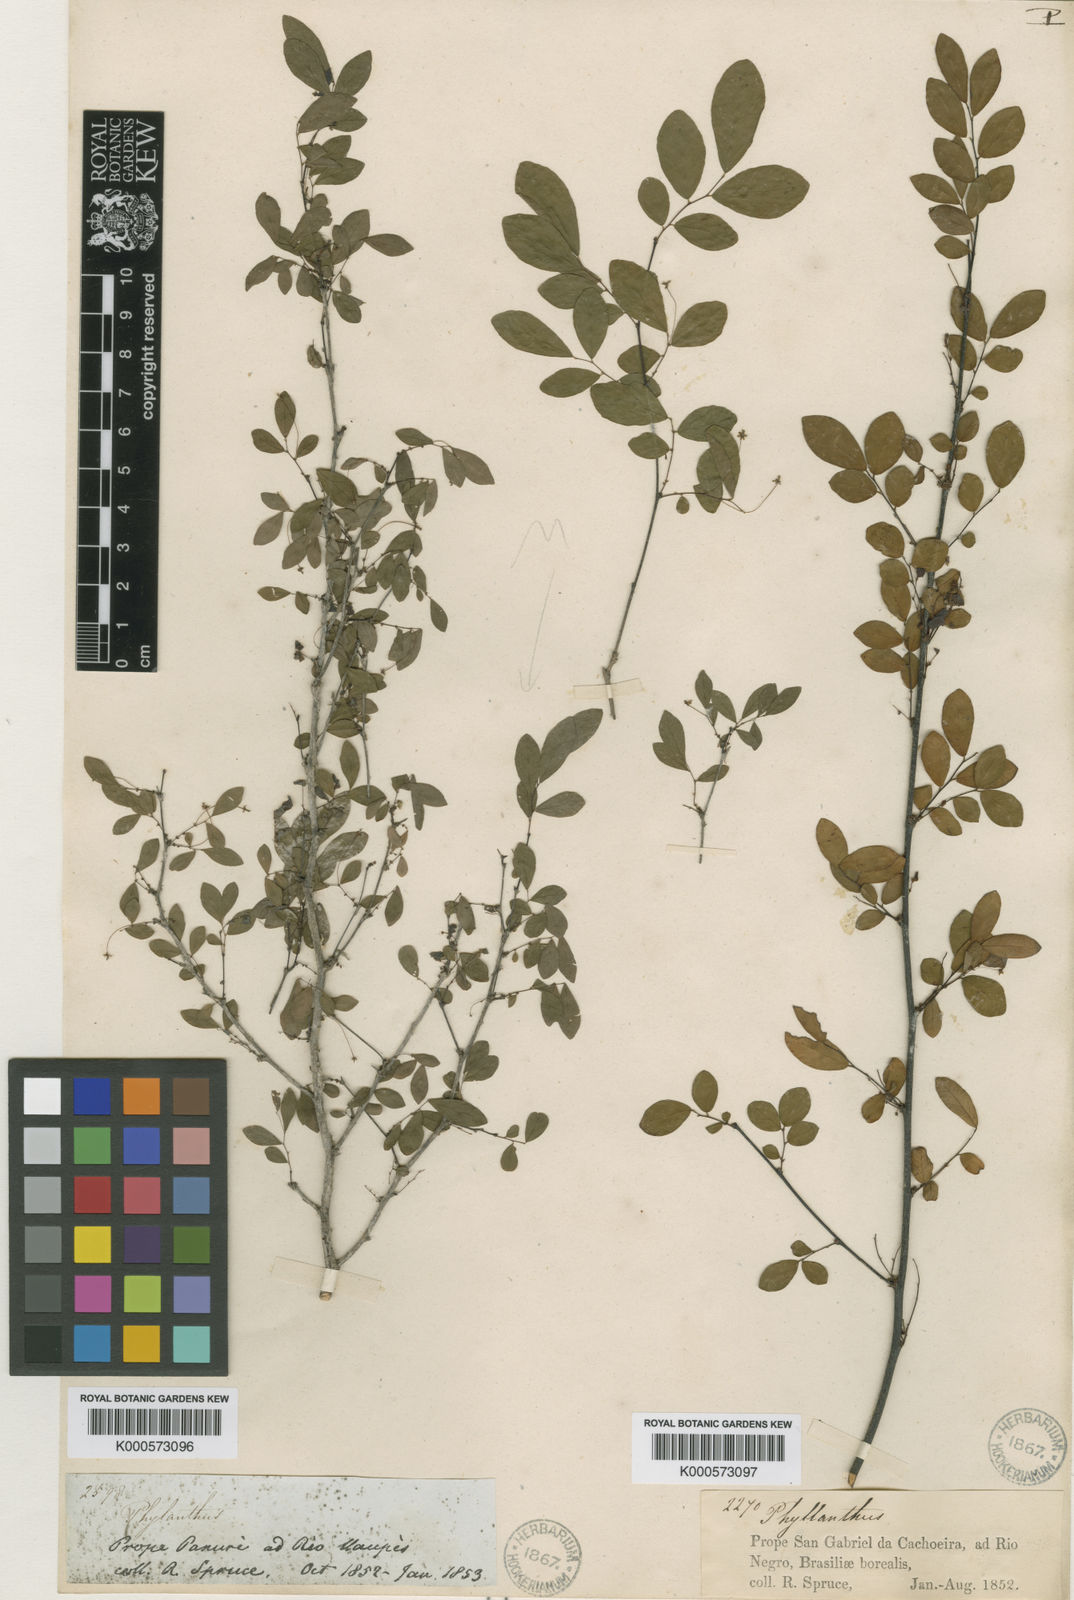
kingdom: Plantae
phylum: Tracheophyta
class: Magnoliopsida
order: Malpighiales
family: Phyllanthaceae
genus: Phyllanthus
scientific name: Phyllanthus rupestris
